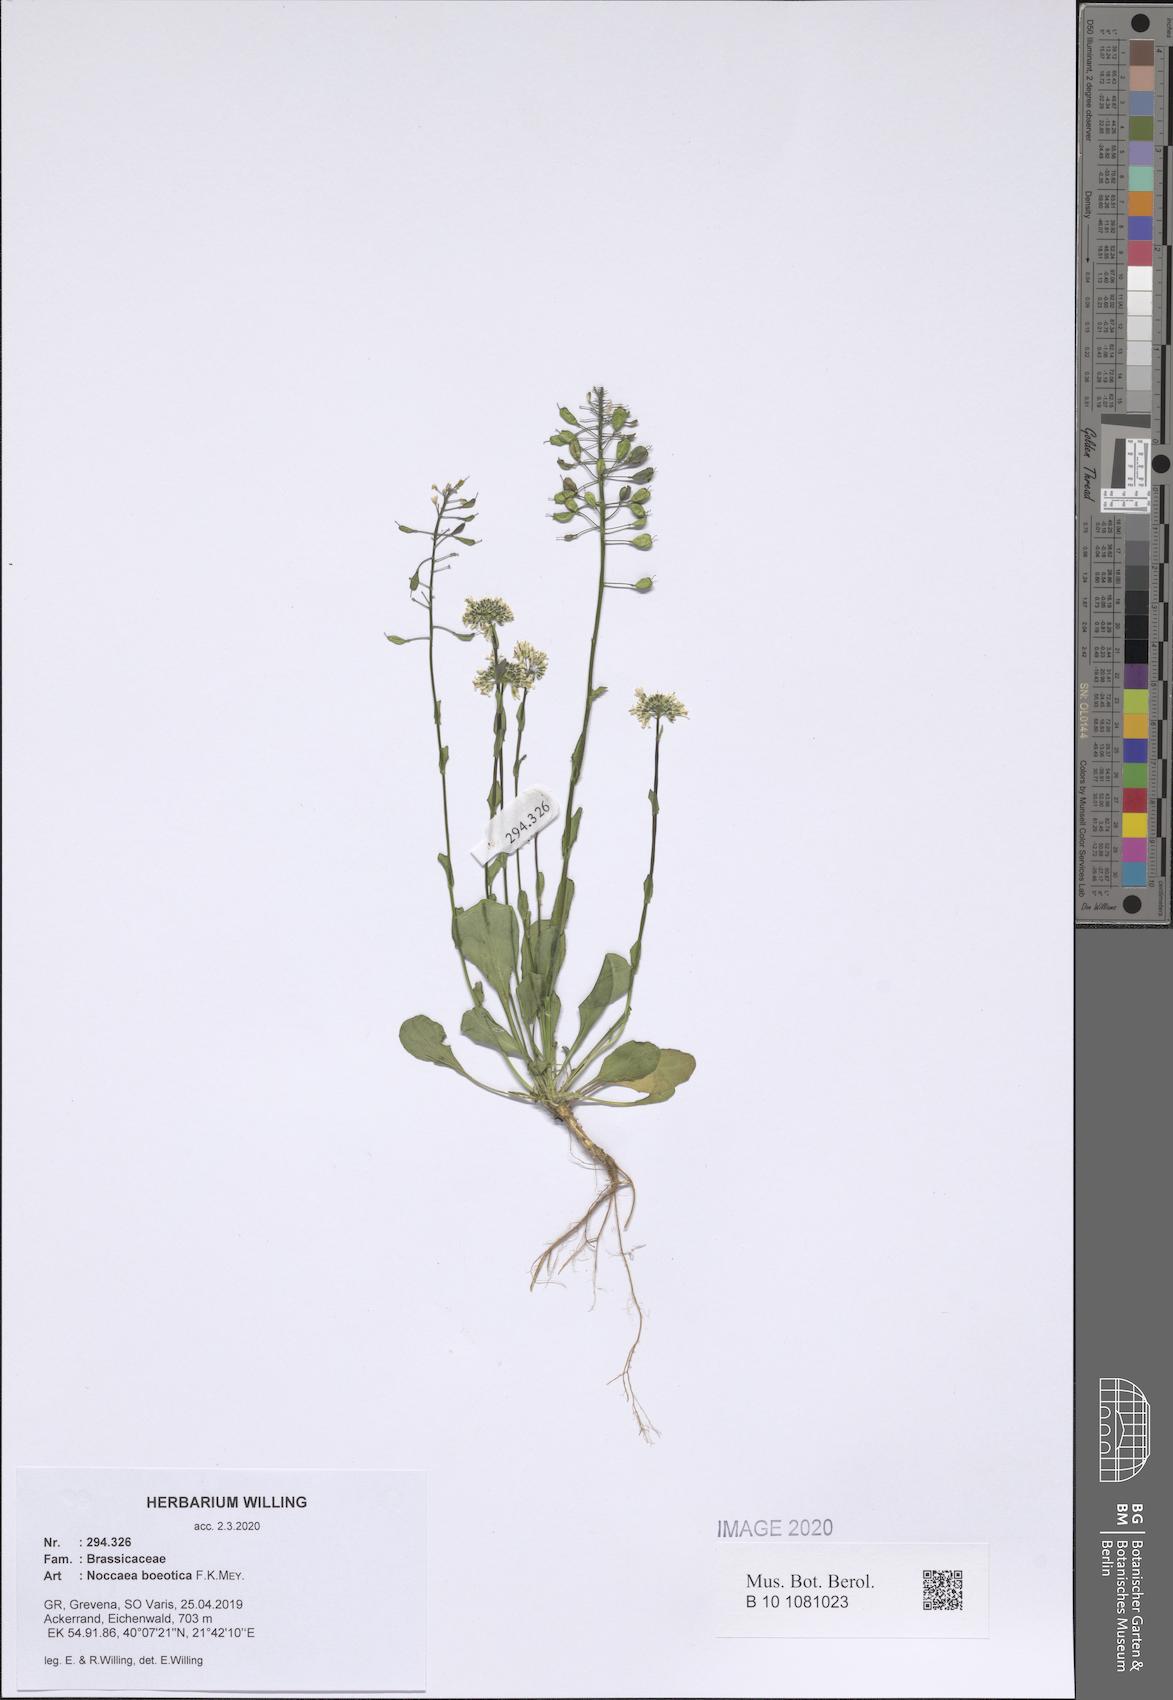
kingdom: Plantae
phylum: Tracheophyta
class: Magnoliopsida
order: Brassicales
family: Brassicaceae
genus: Noccaea
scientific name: Noccaea boeotica
